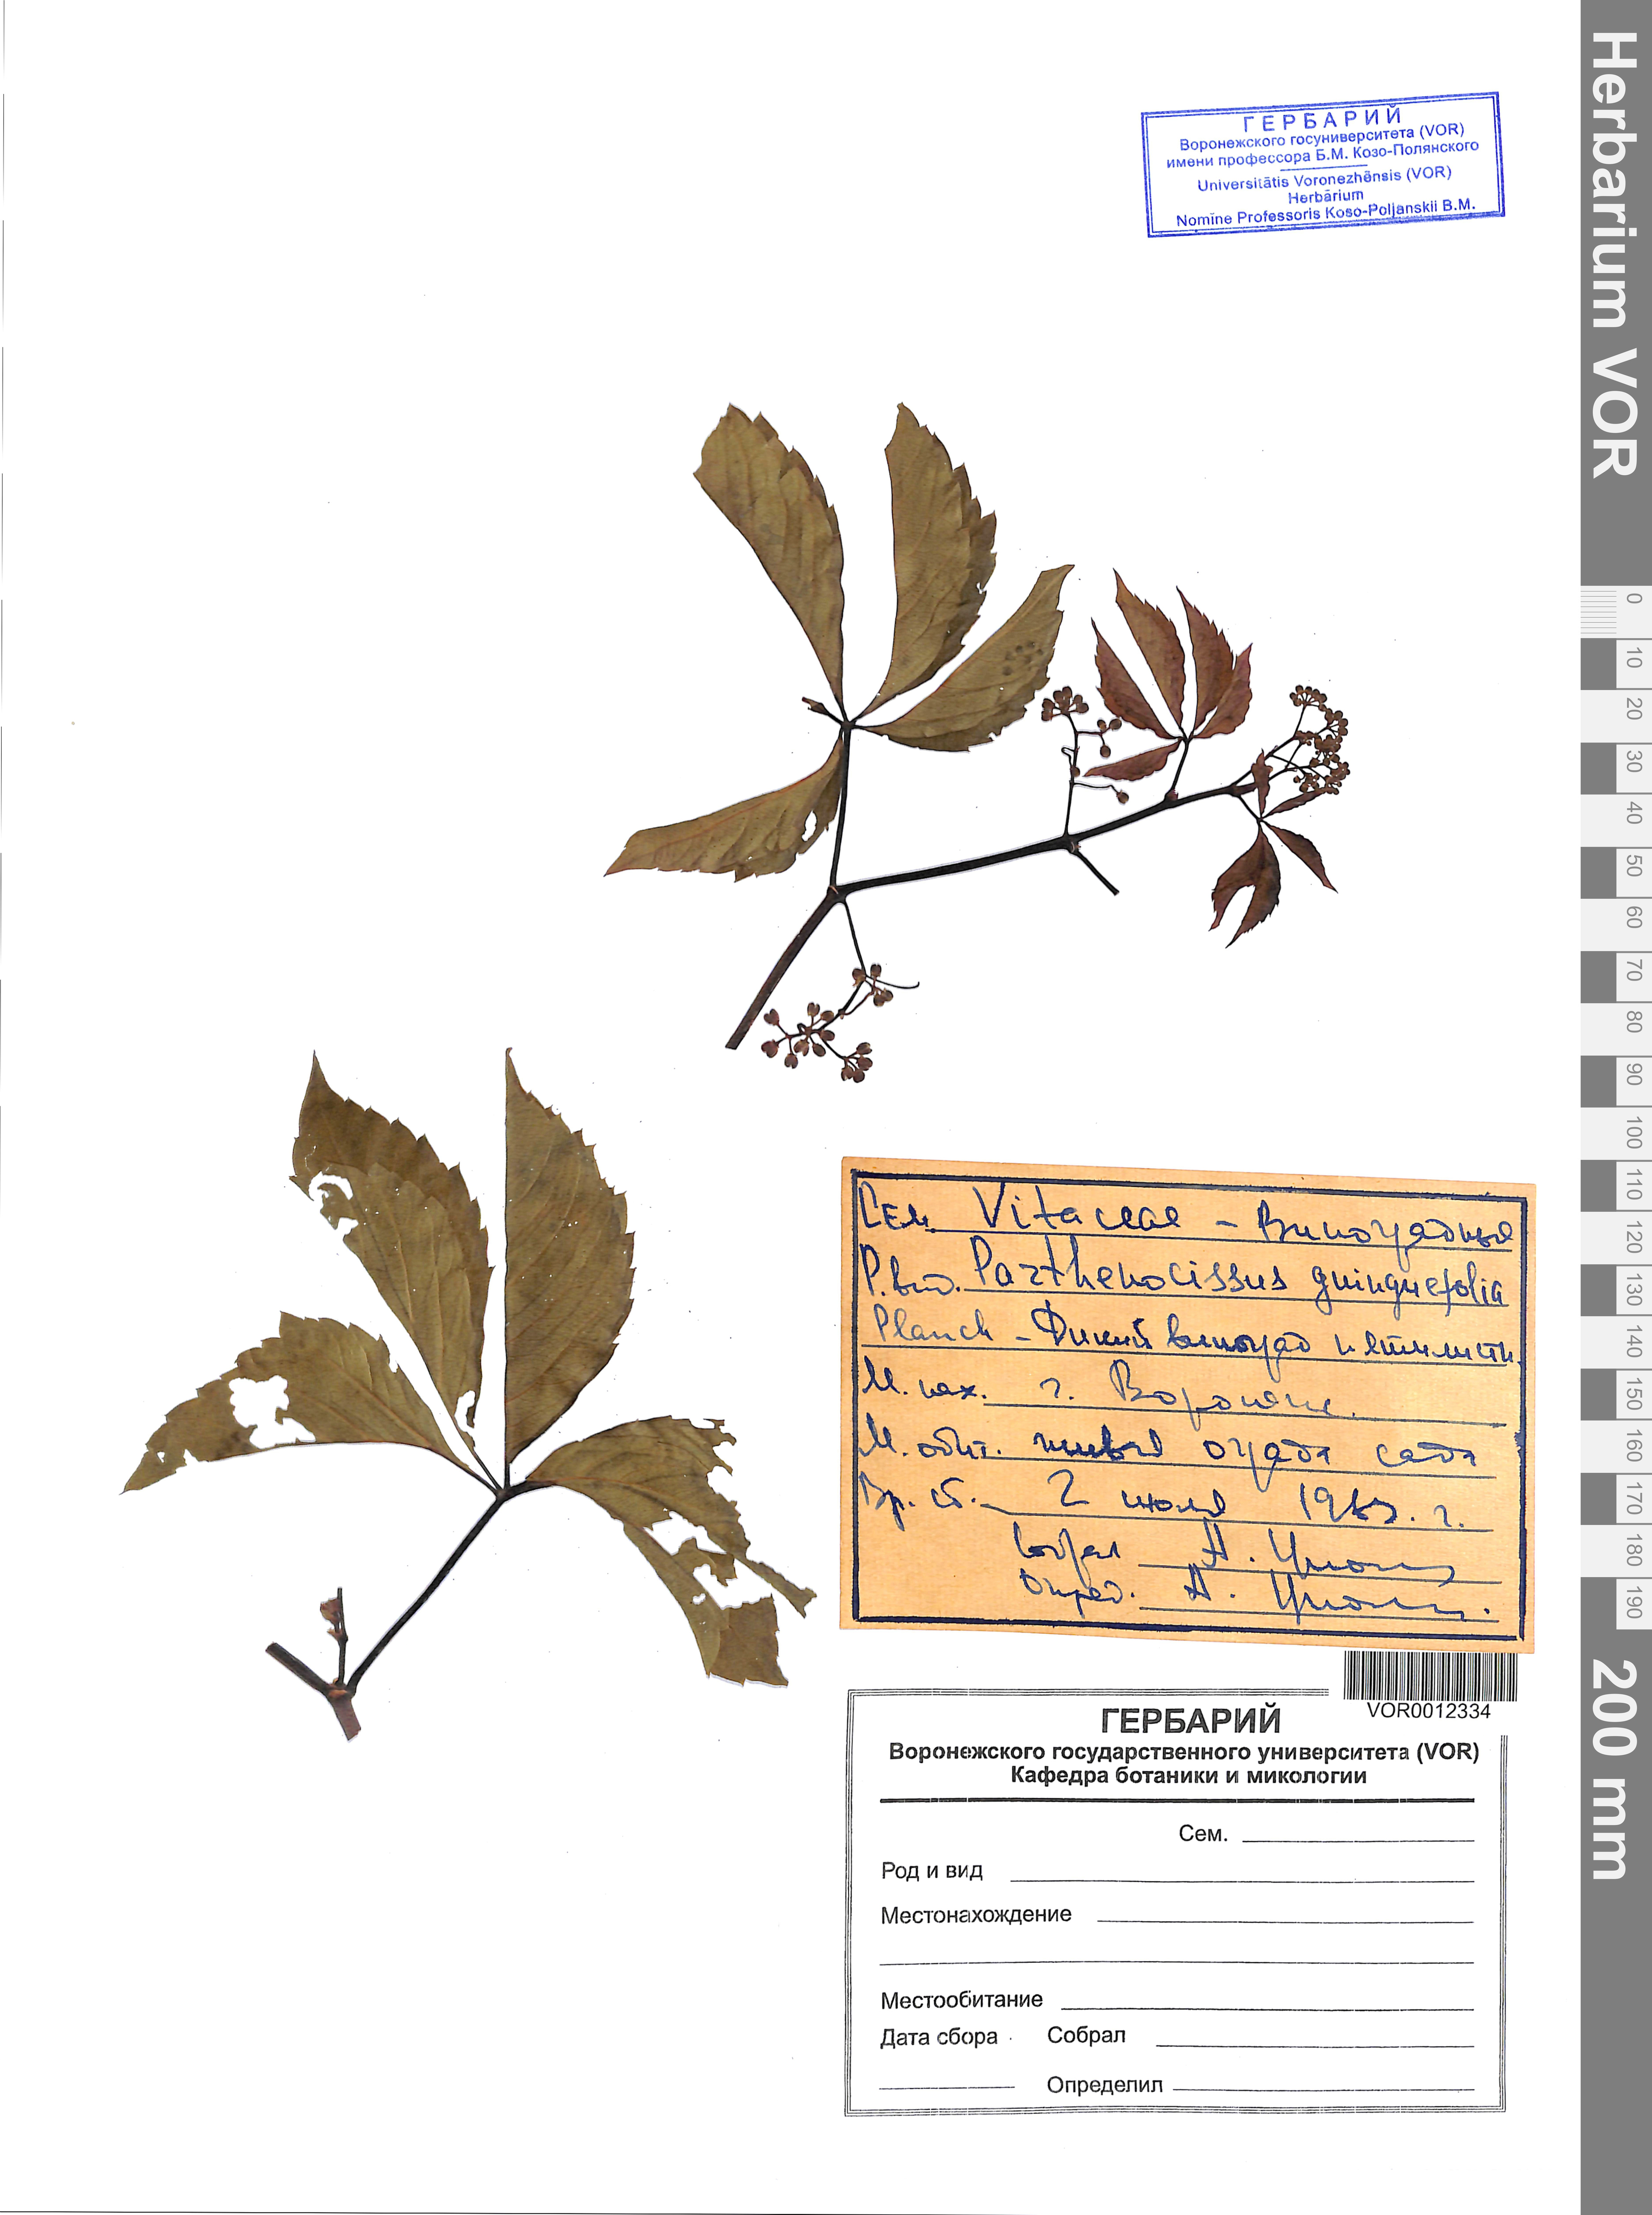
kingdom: Plantae
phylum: Tracheophyta
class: Magnoliopsida
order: Vitales
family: Vitaceae
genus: Parthenocissus
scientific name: Parthenocissus quinquefolia
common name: Virginia-creeper
